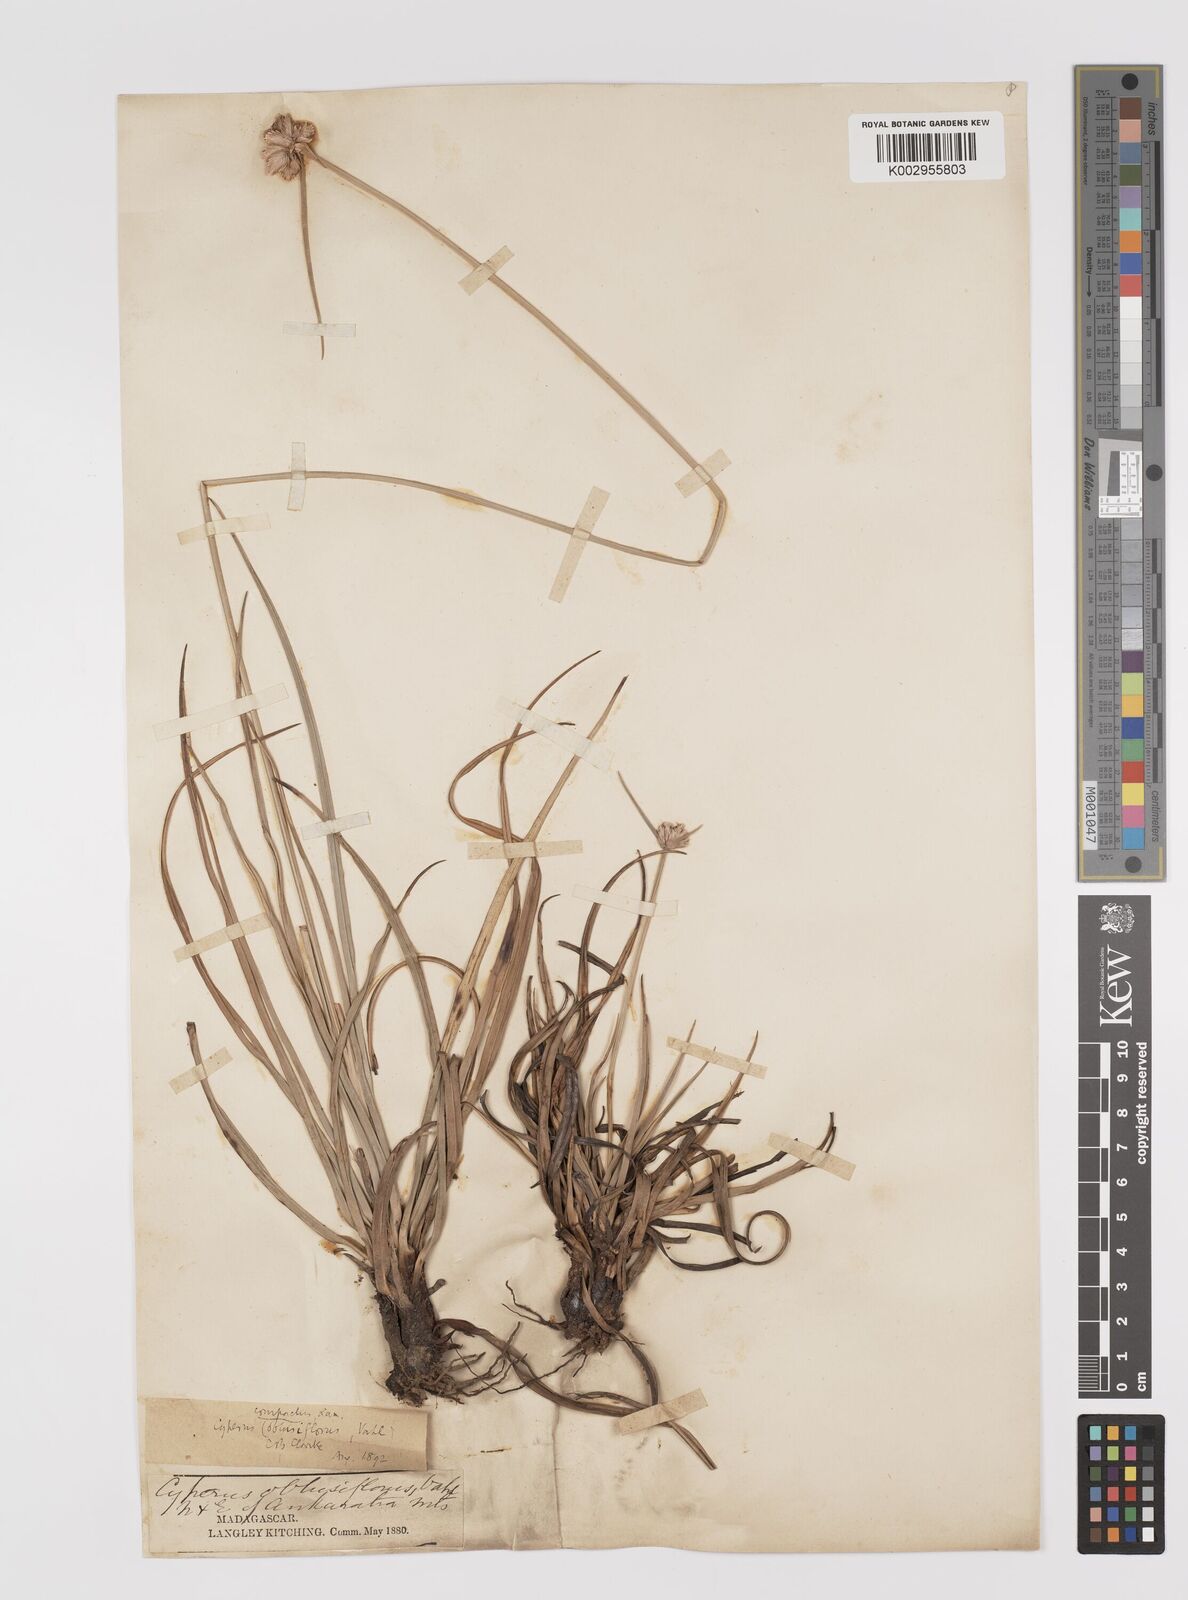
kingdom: Plantae
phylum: Tracheophyta
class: Liliopsida
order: Poales
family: Cyperaceae
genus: Cyperus
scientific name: Cyperus niveus
